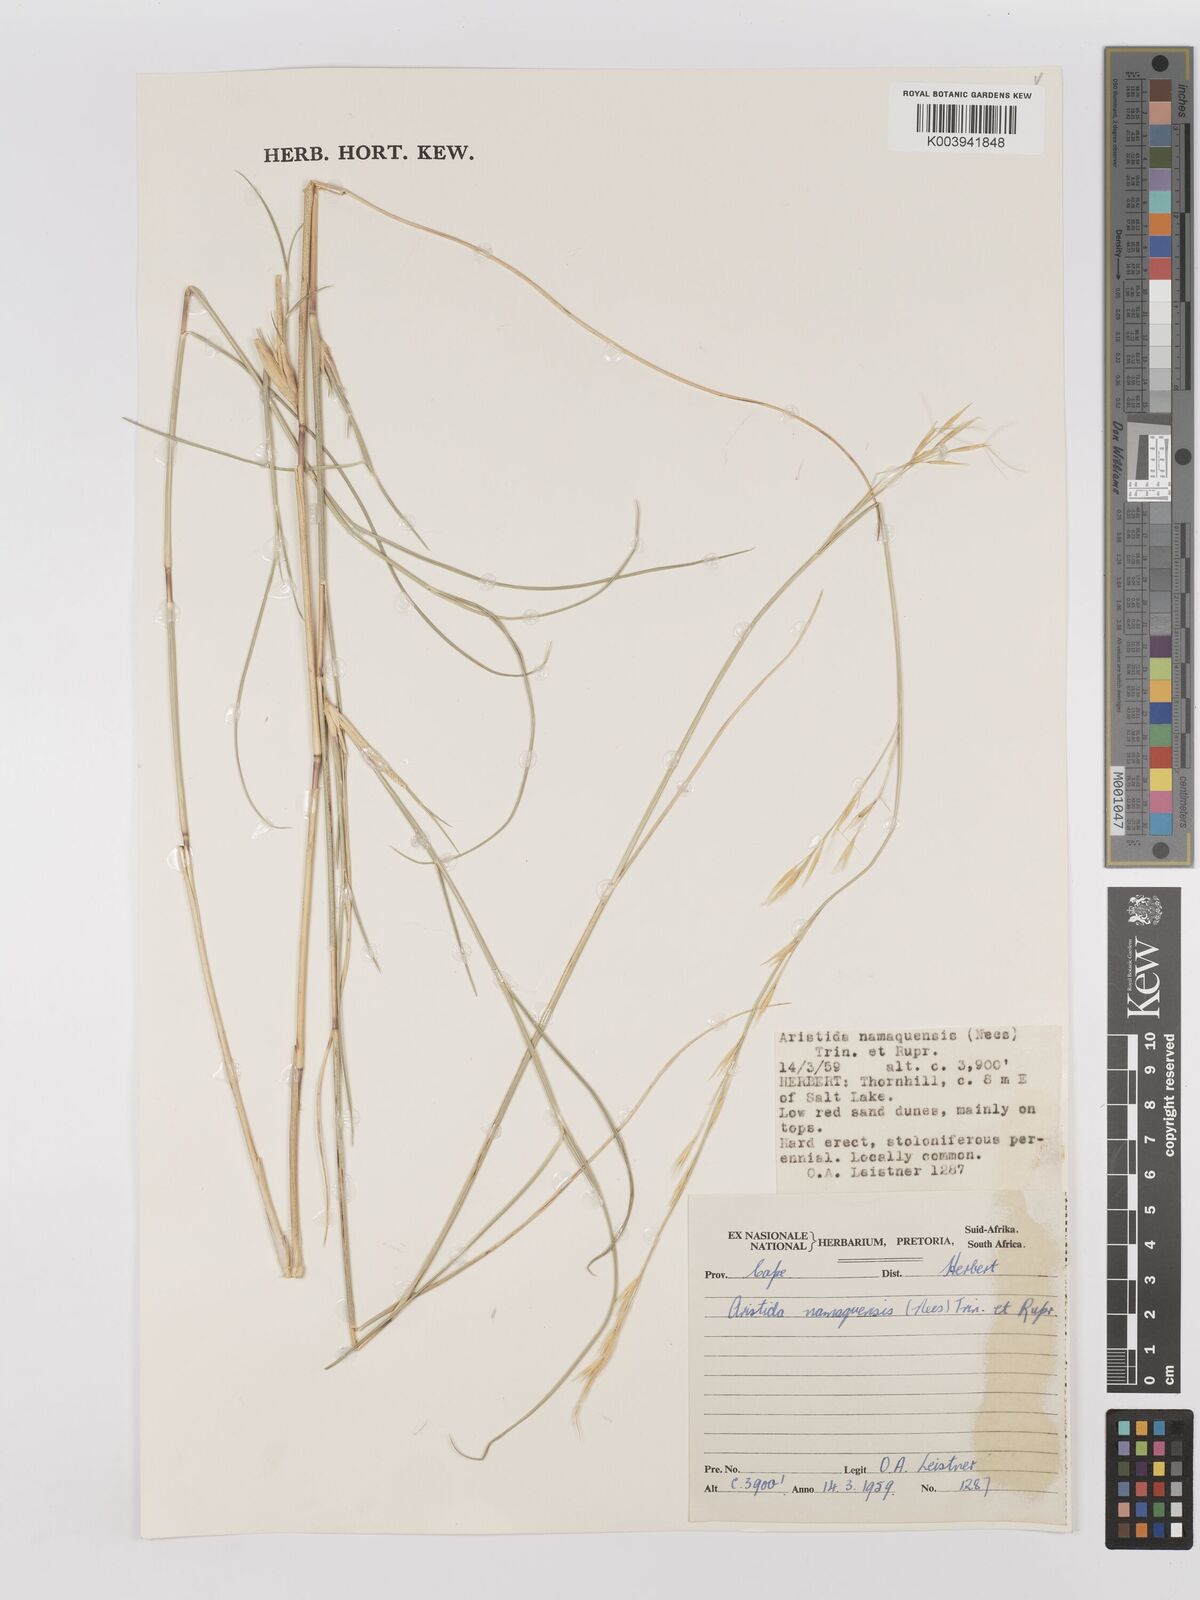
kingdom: Plantae
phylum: Tracheophyta
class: Liliopsida
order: Poales
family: Poaceae
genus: Stipagrostis
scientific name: Stipagrostis namaquensis
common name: River bushman grass
